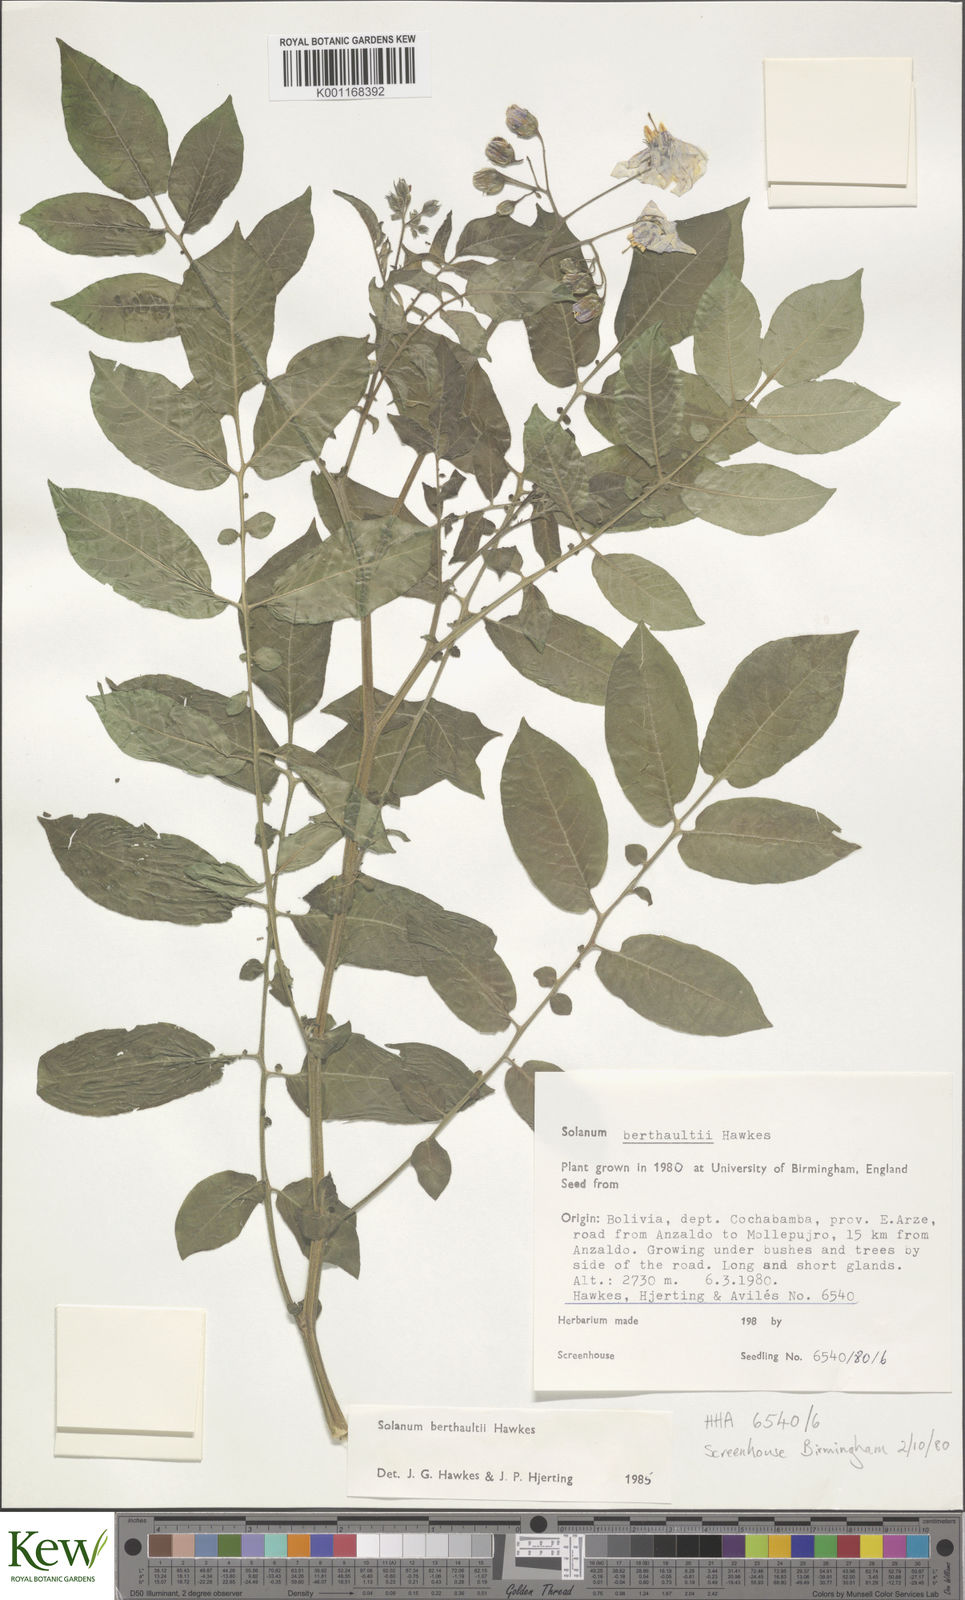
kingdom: Plantae
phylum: Tracheophyta
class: Magnoliopsida
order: Solanales
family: Solanaceae
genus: Solanum
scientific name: Solanum berthaultii
